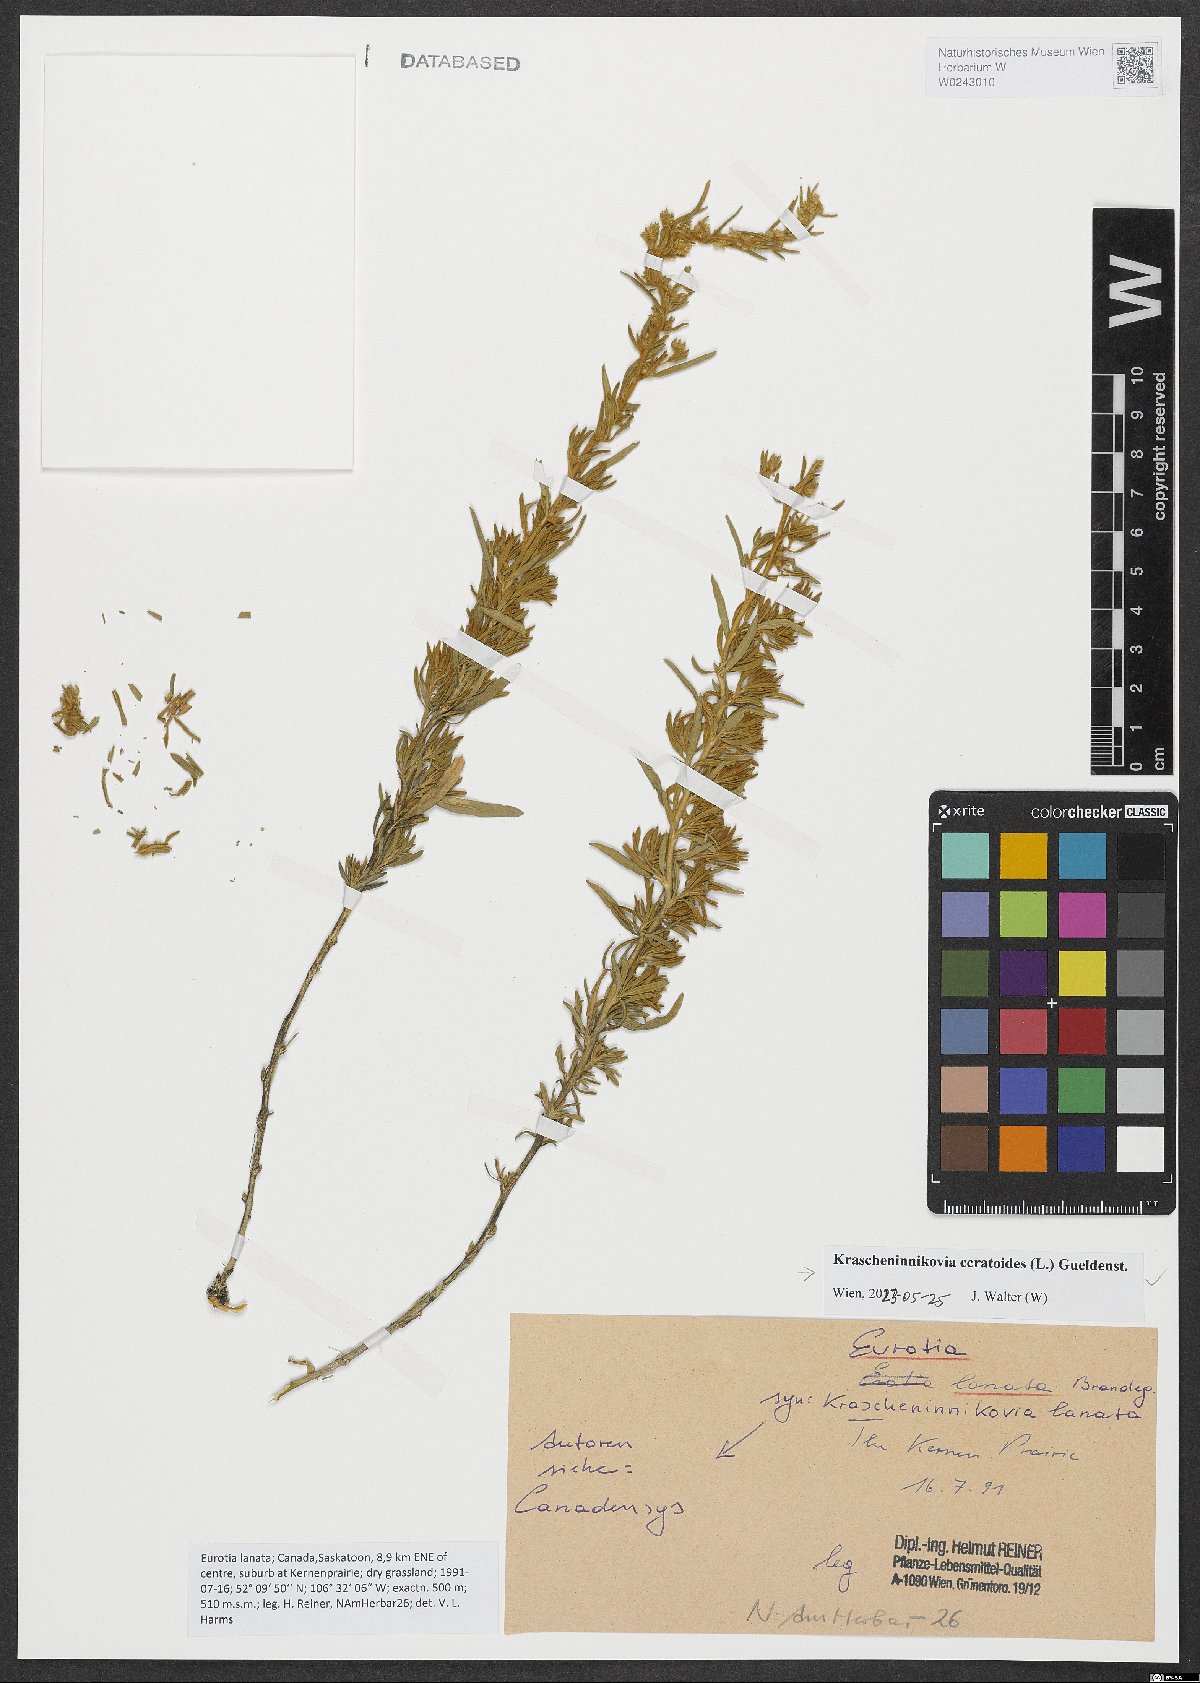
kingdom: Plantae
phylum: Tracheophyta
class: Magnoliopsida
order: Caryophyllales
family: Amaranthaceae
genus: Krascheninnikovia
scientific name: Krascheninnikovia lanata
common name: Winterfat
